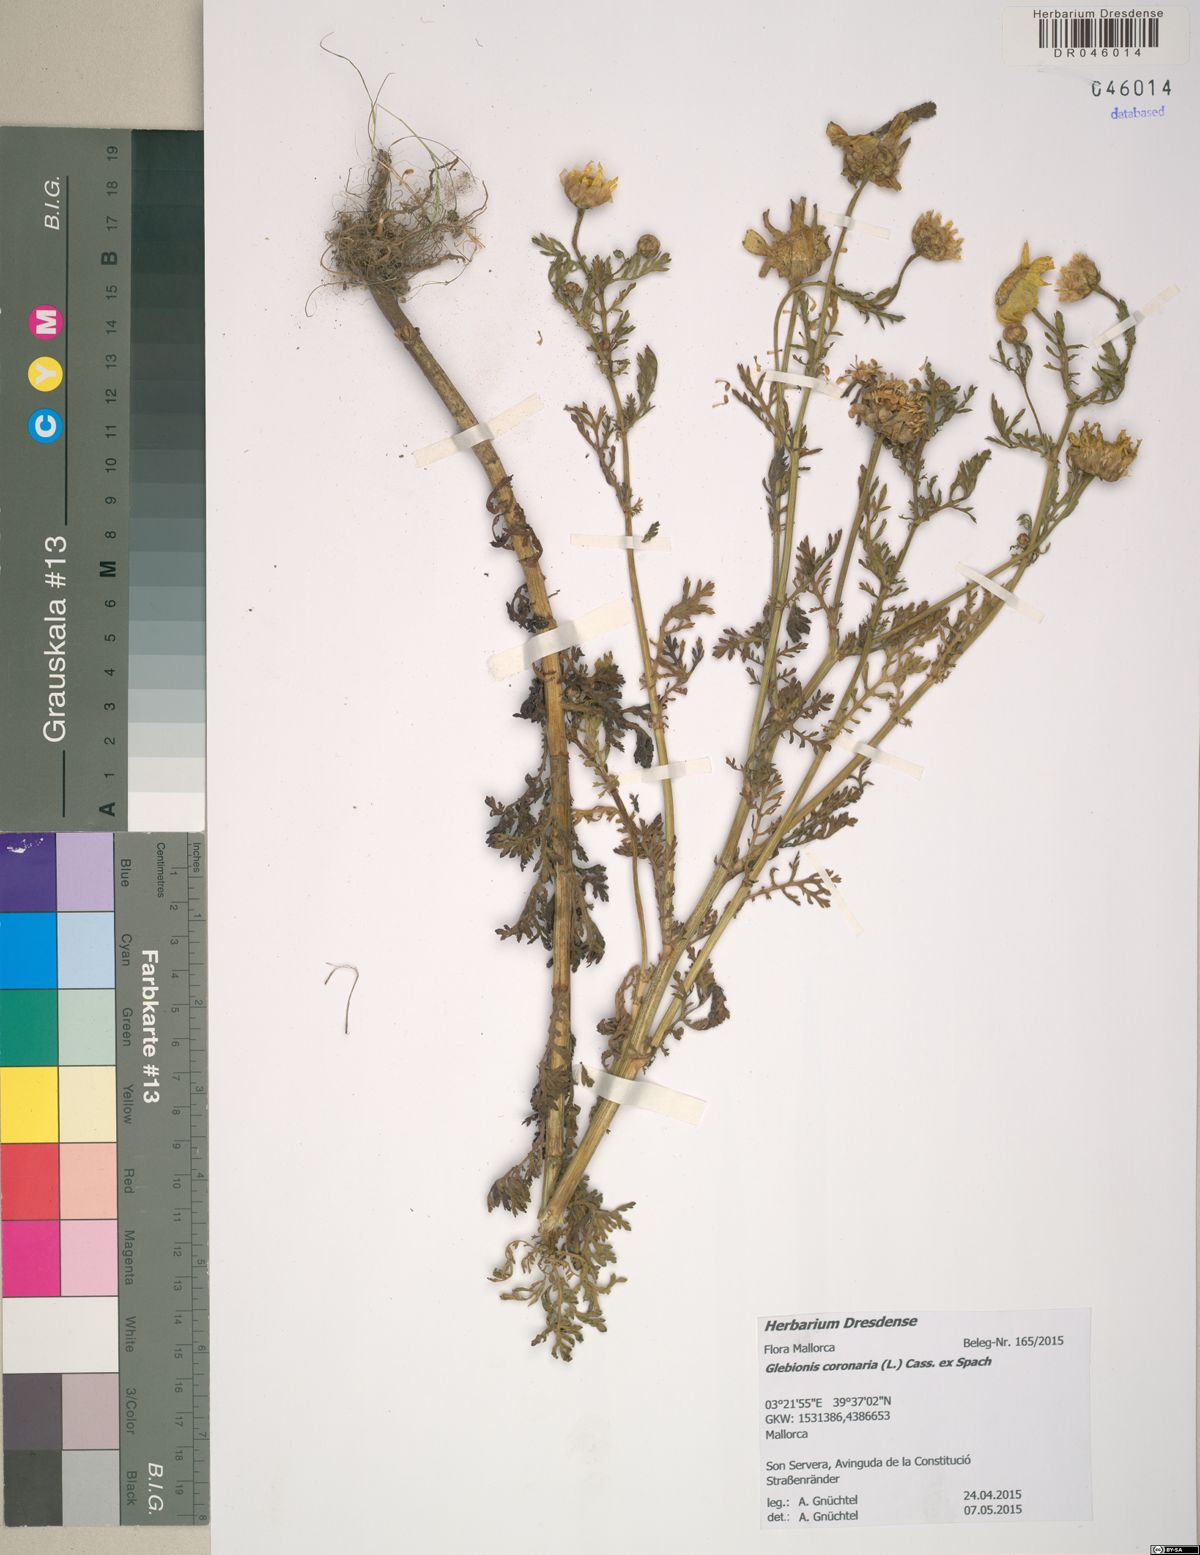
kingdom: Plantae
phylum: Tracheophyta
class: Magnoliopsida
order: Asterales
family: Asteraceae
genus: Glebionis
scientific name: Glebionis coronaria
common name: Crowndaisy
